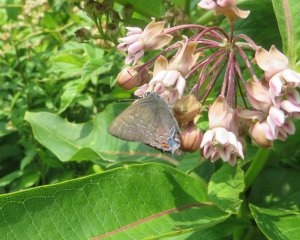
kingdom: Animalia
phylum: Arthropoda
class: Insecta
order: Lepidoptera
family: Lycaenidae
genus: Satyrium
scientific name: Satyrium calanus
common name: Banded Hairstreak
